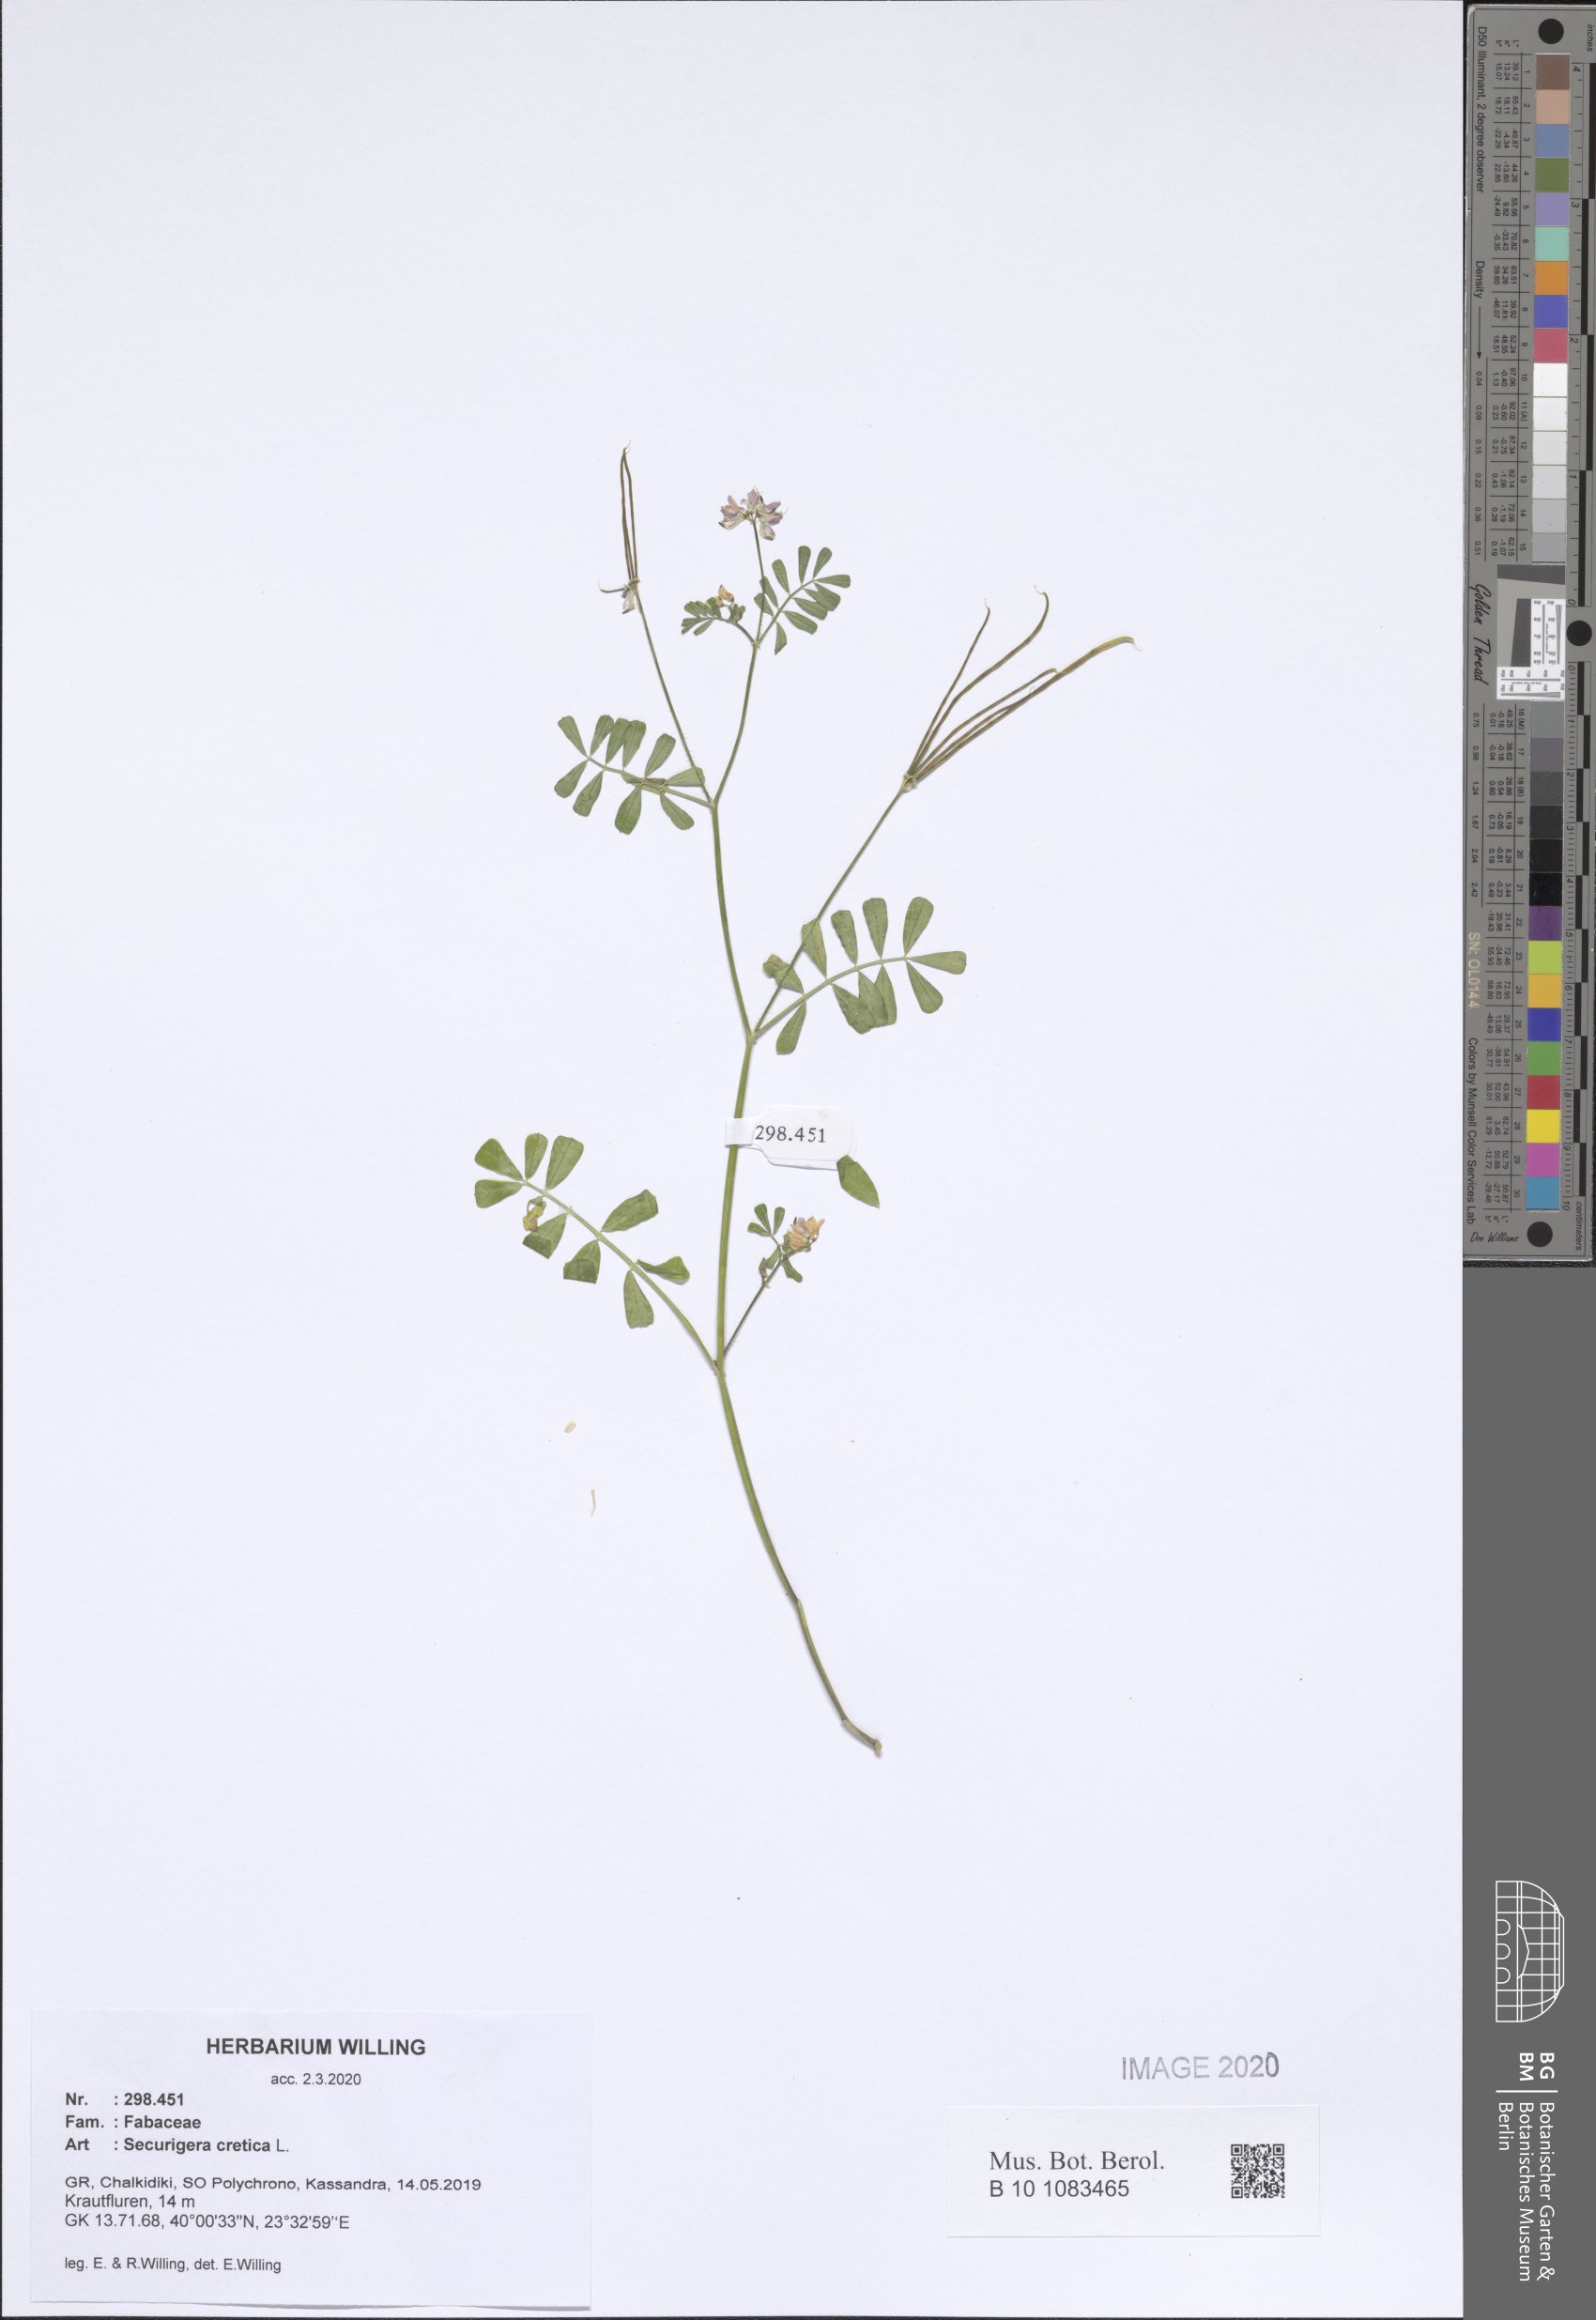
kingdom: Plantae
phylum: Tracheophyta
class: Magnoliopsida
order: Fabales
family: Fabaceae
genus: Coronilla
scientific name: Coronilla cretica
